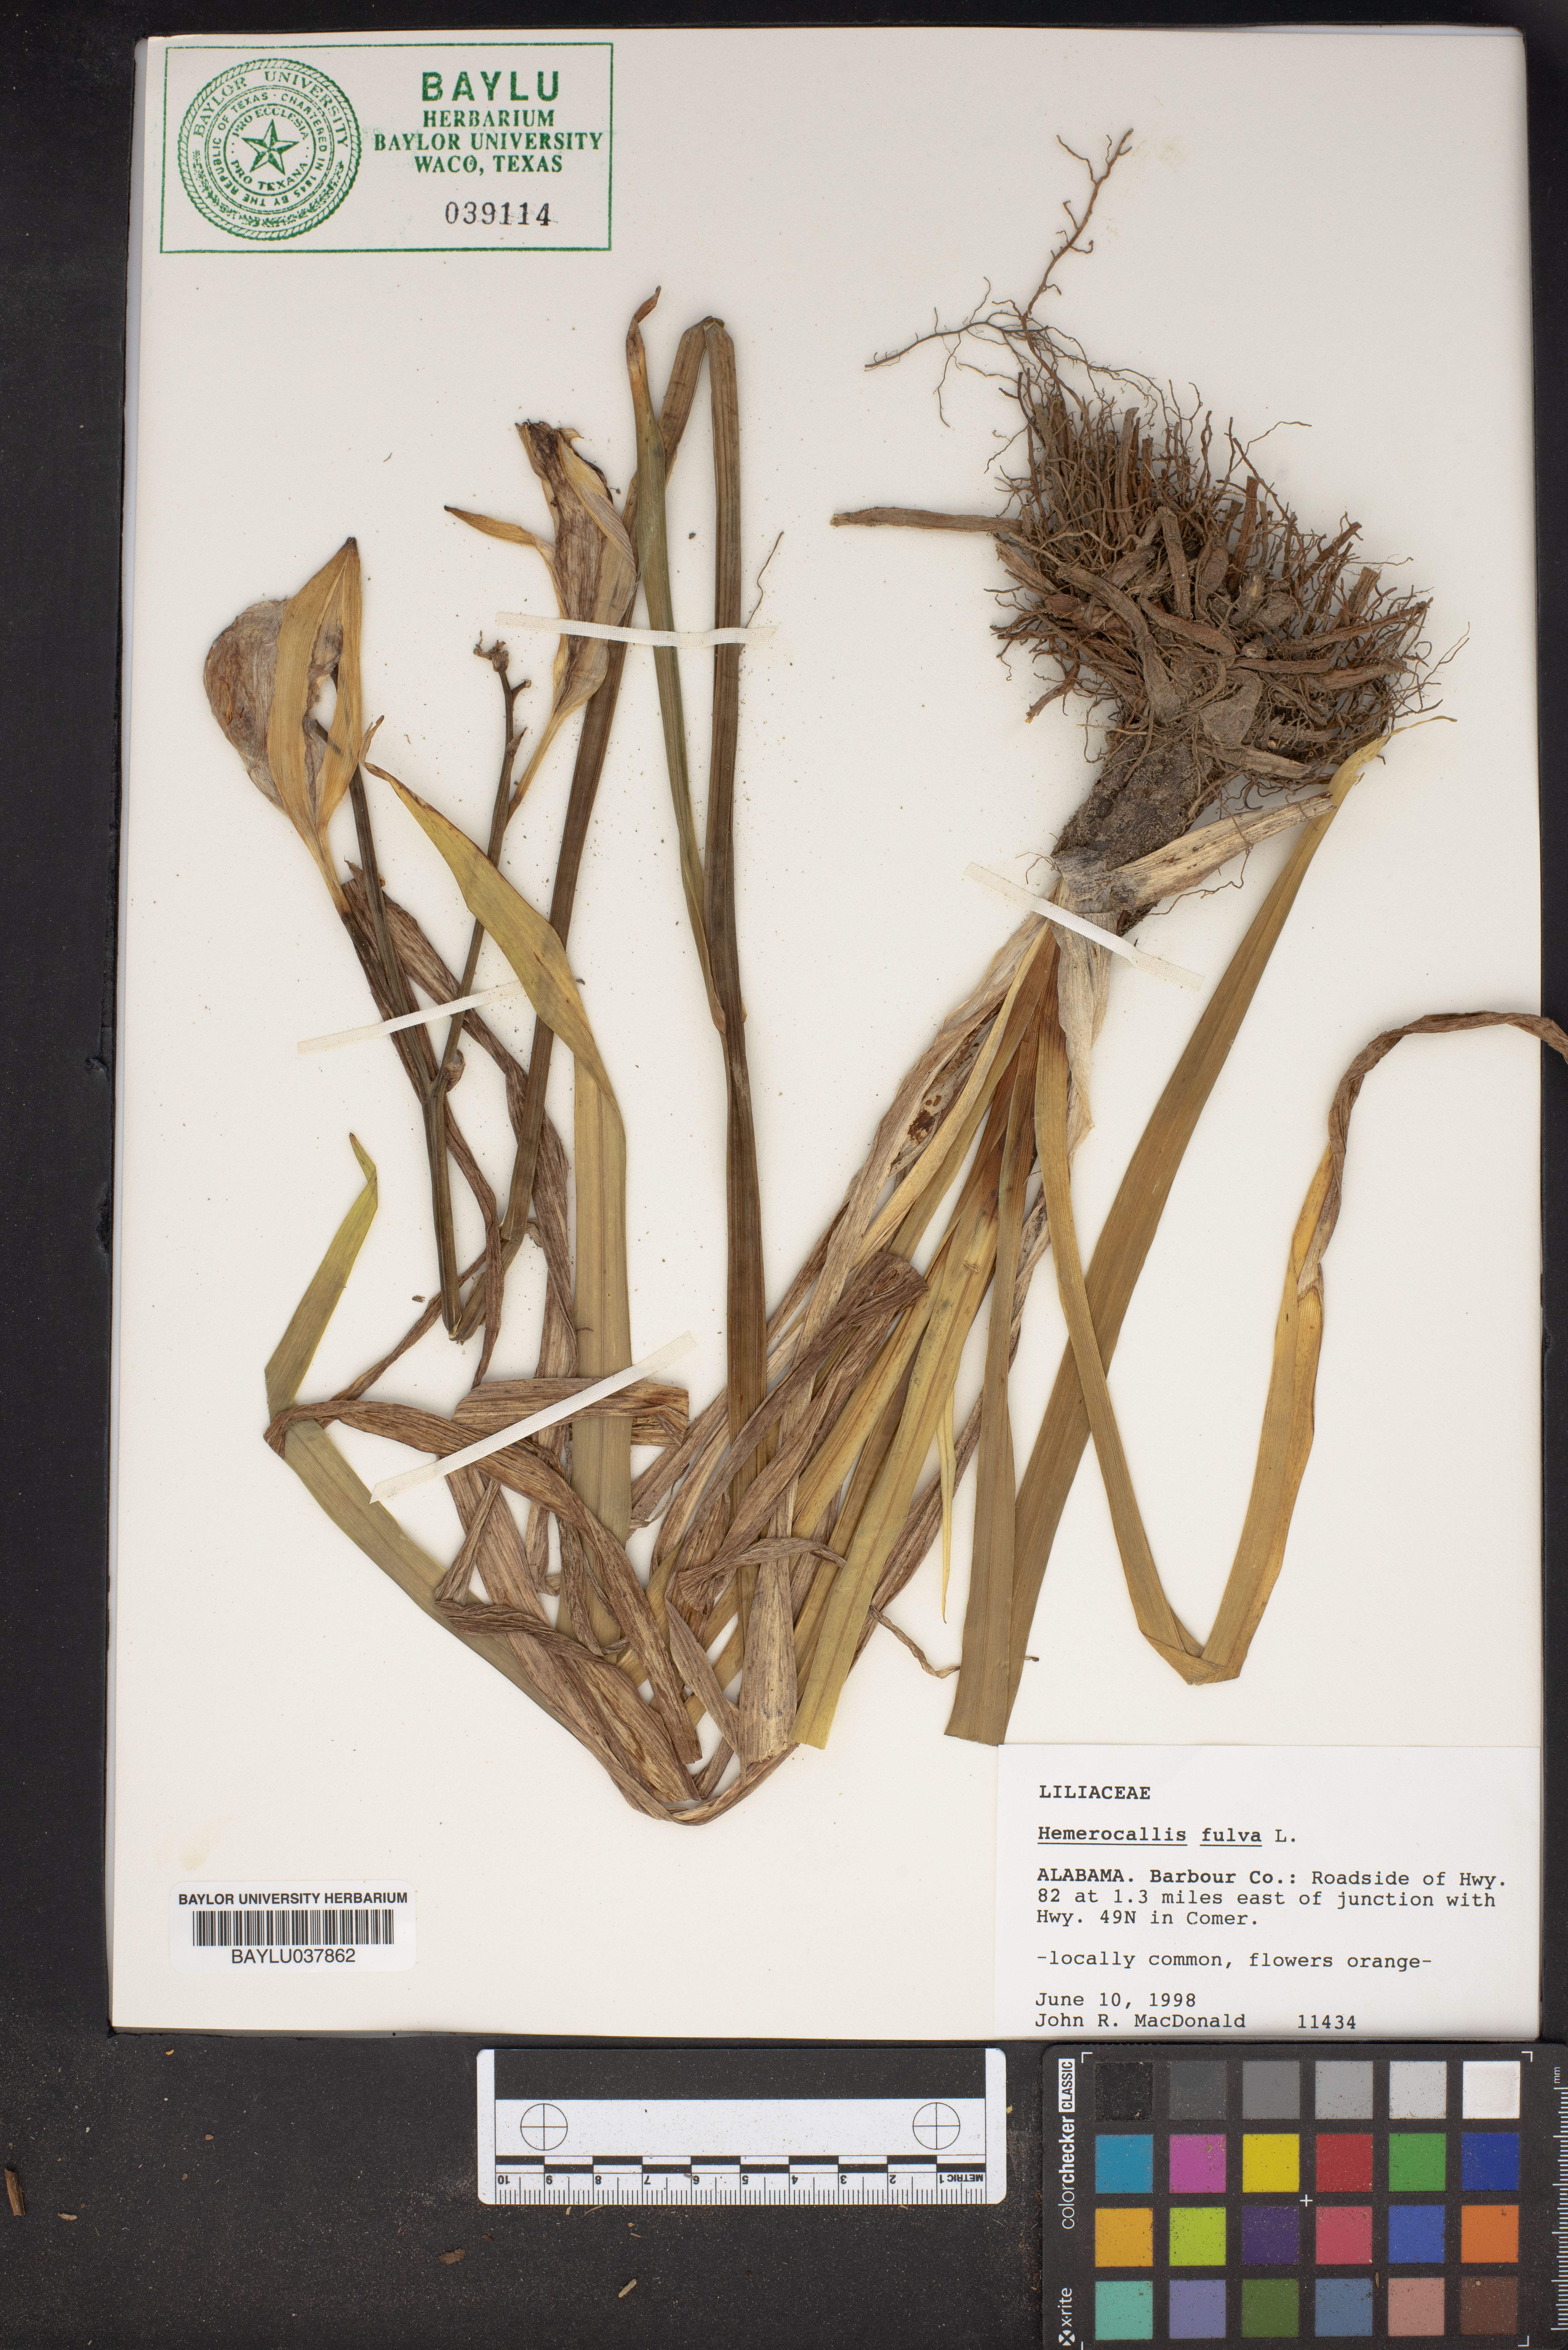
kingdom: Plantae
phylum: Tracheophyta
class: Liliopsida
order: Asparagales
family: Asphodelaceae
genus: Hemerocallis
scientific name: Hemerocallis fulva
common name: Orange day-lily
